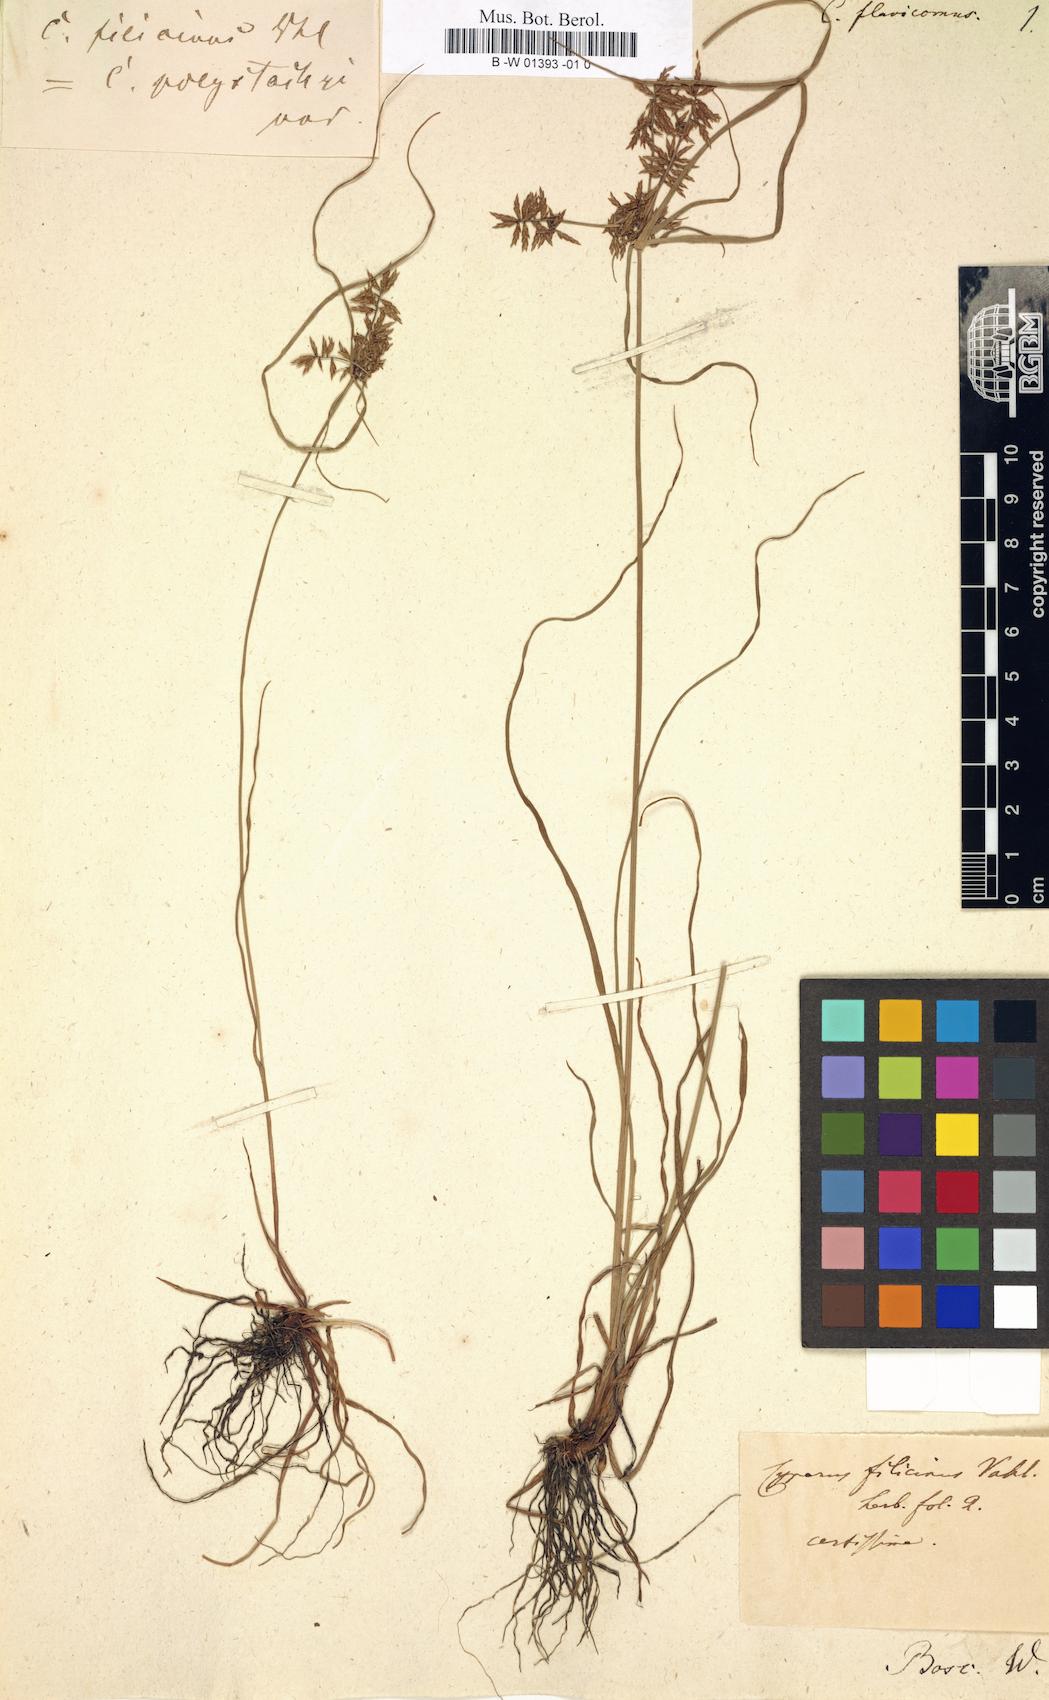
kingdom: Plantae
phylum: Tracheophyta
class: Liliopsida
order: Poales
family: Cyperaceae
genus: Cyperus
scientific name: Cyperus flavicomus
